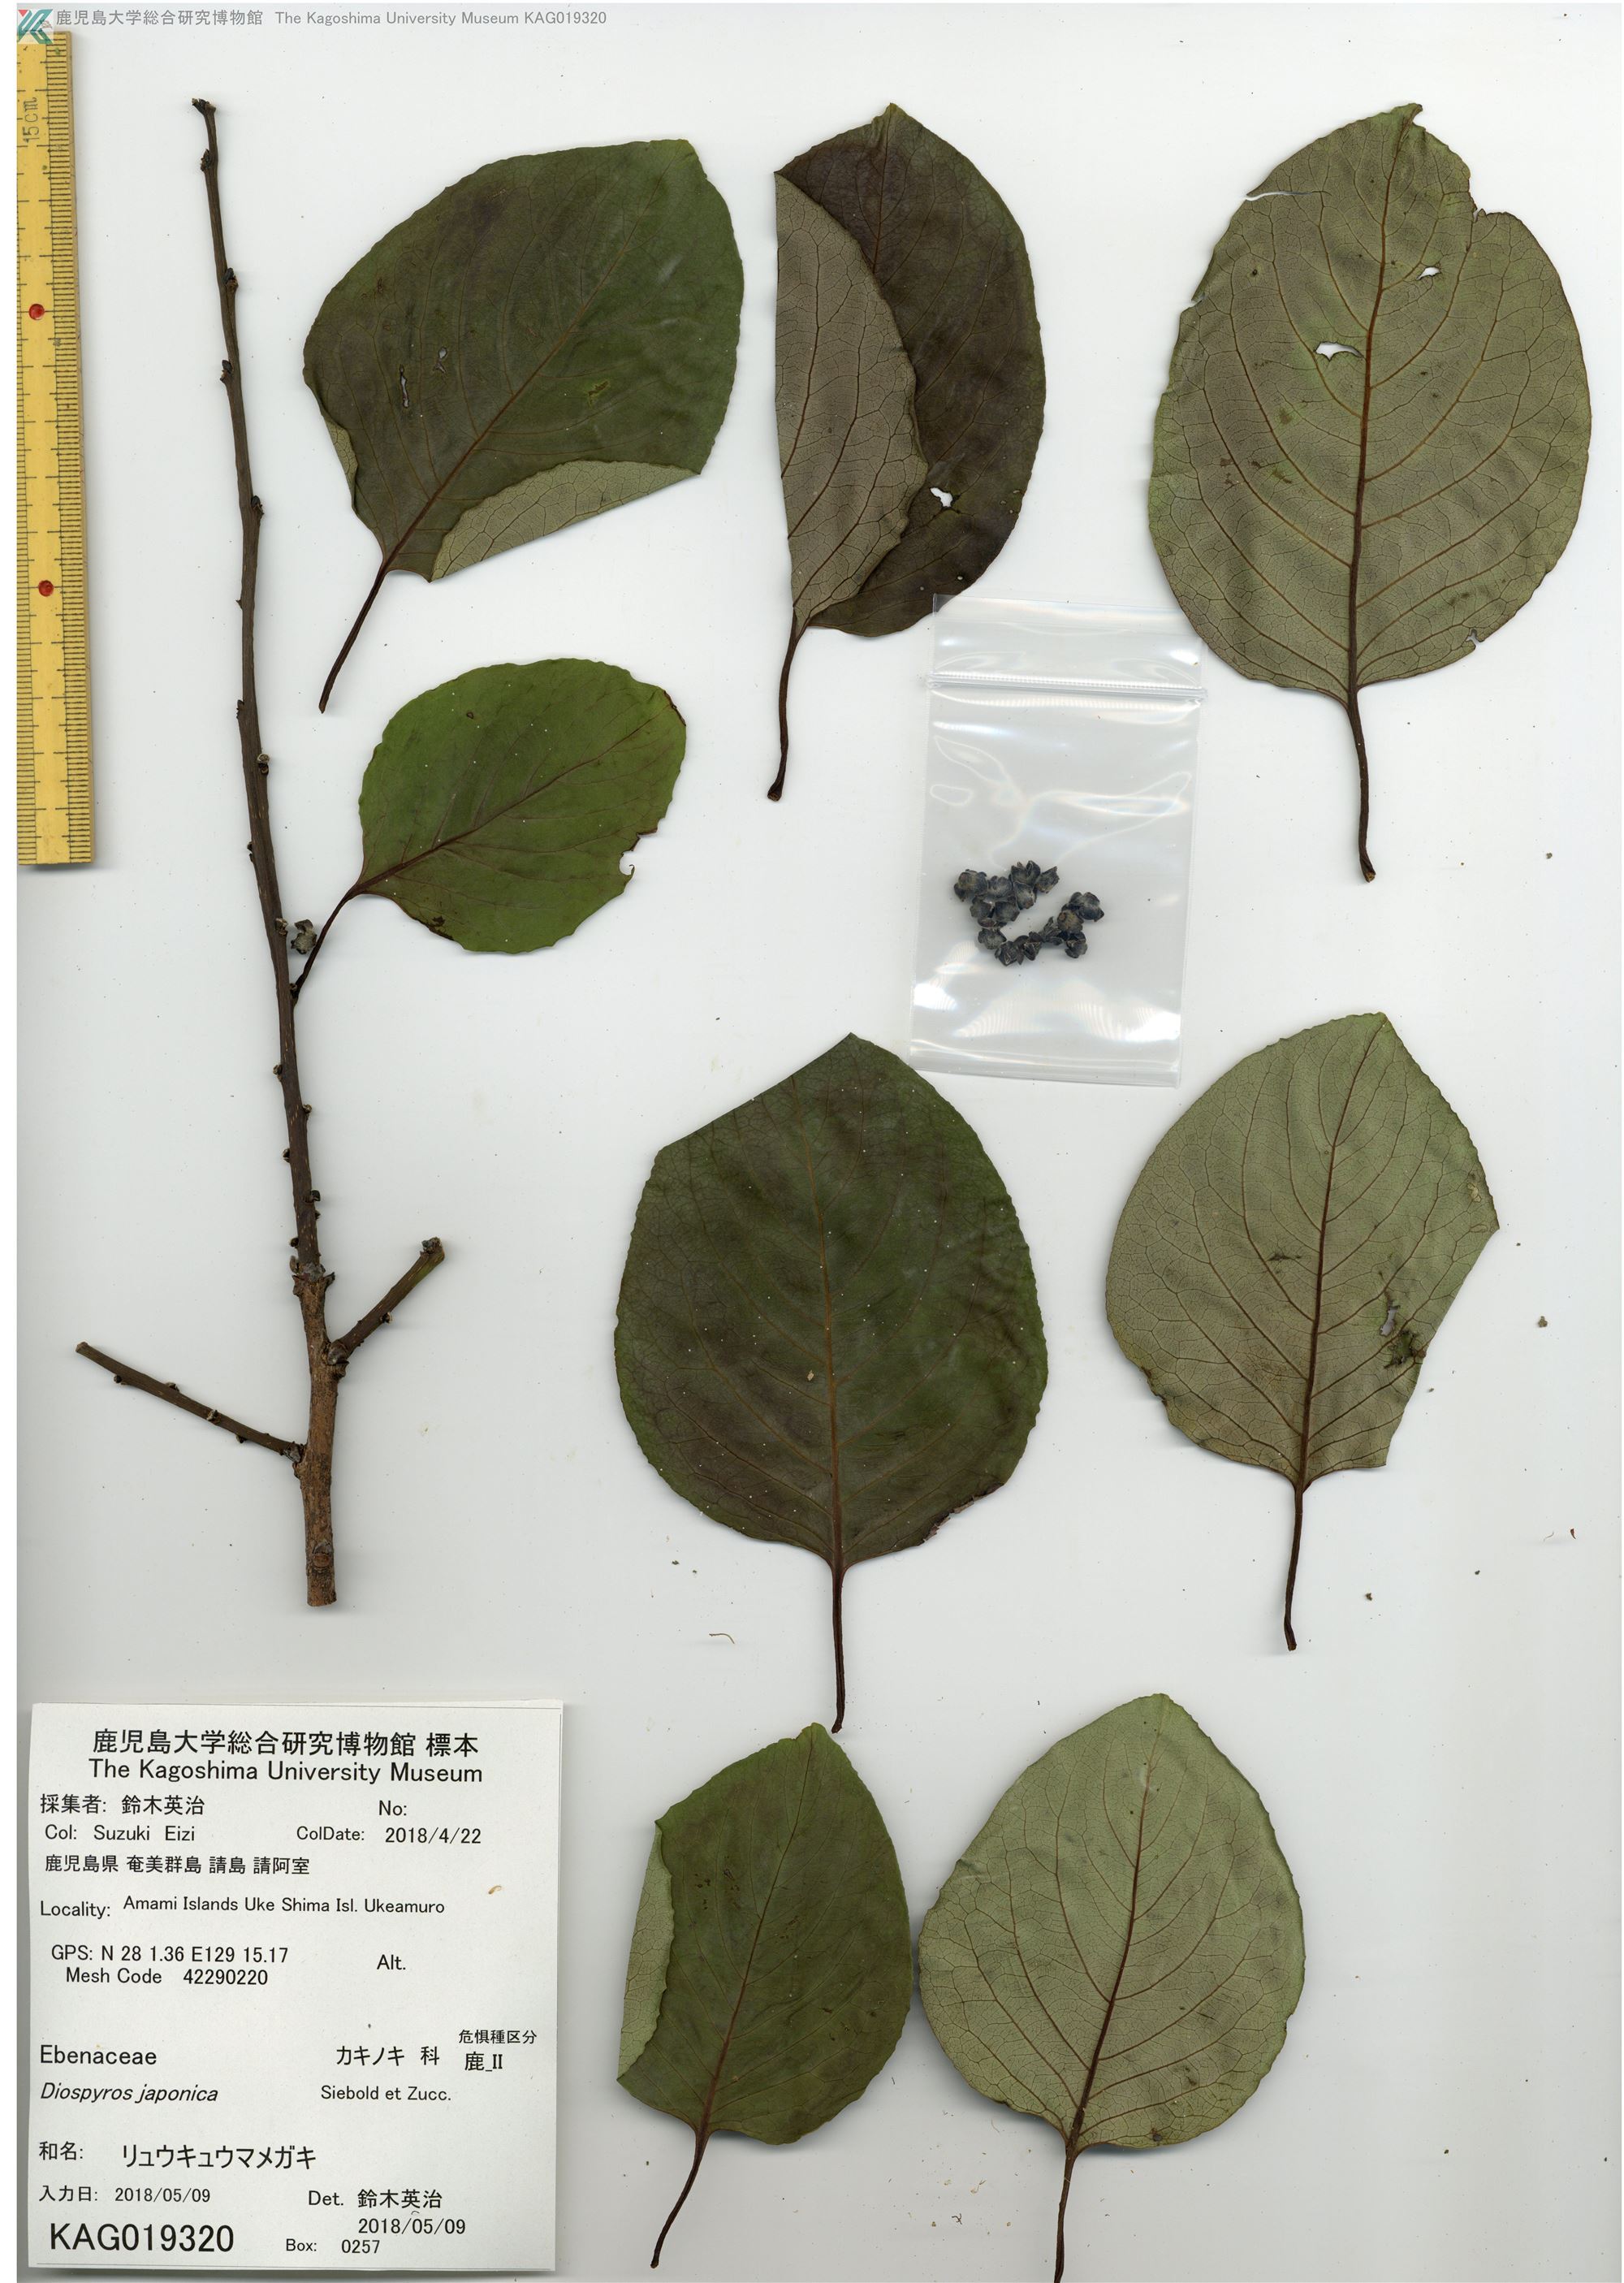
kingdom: Plantae
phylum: Tracheophyta
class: Magnoliopsida
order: Ericales
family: Ebenaceae
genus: Diospyros
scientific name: Diospyros japonica
